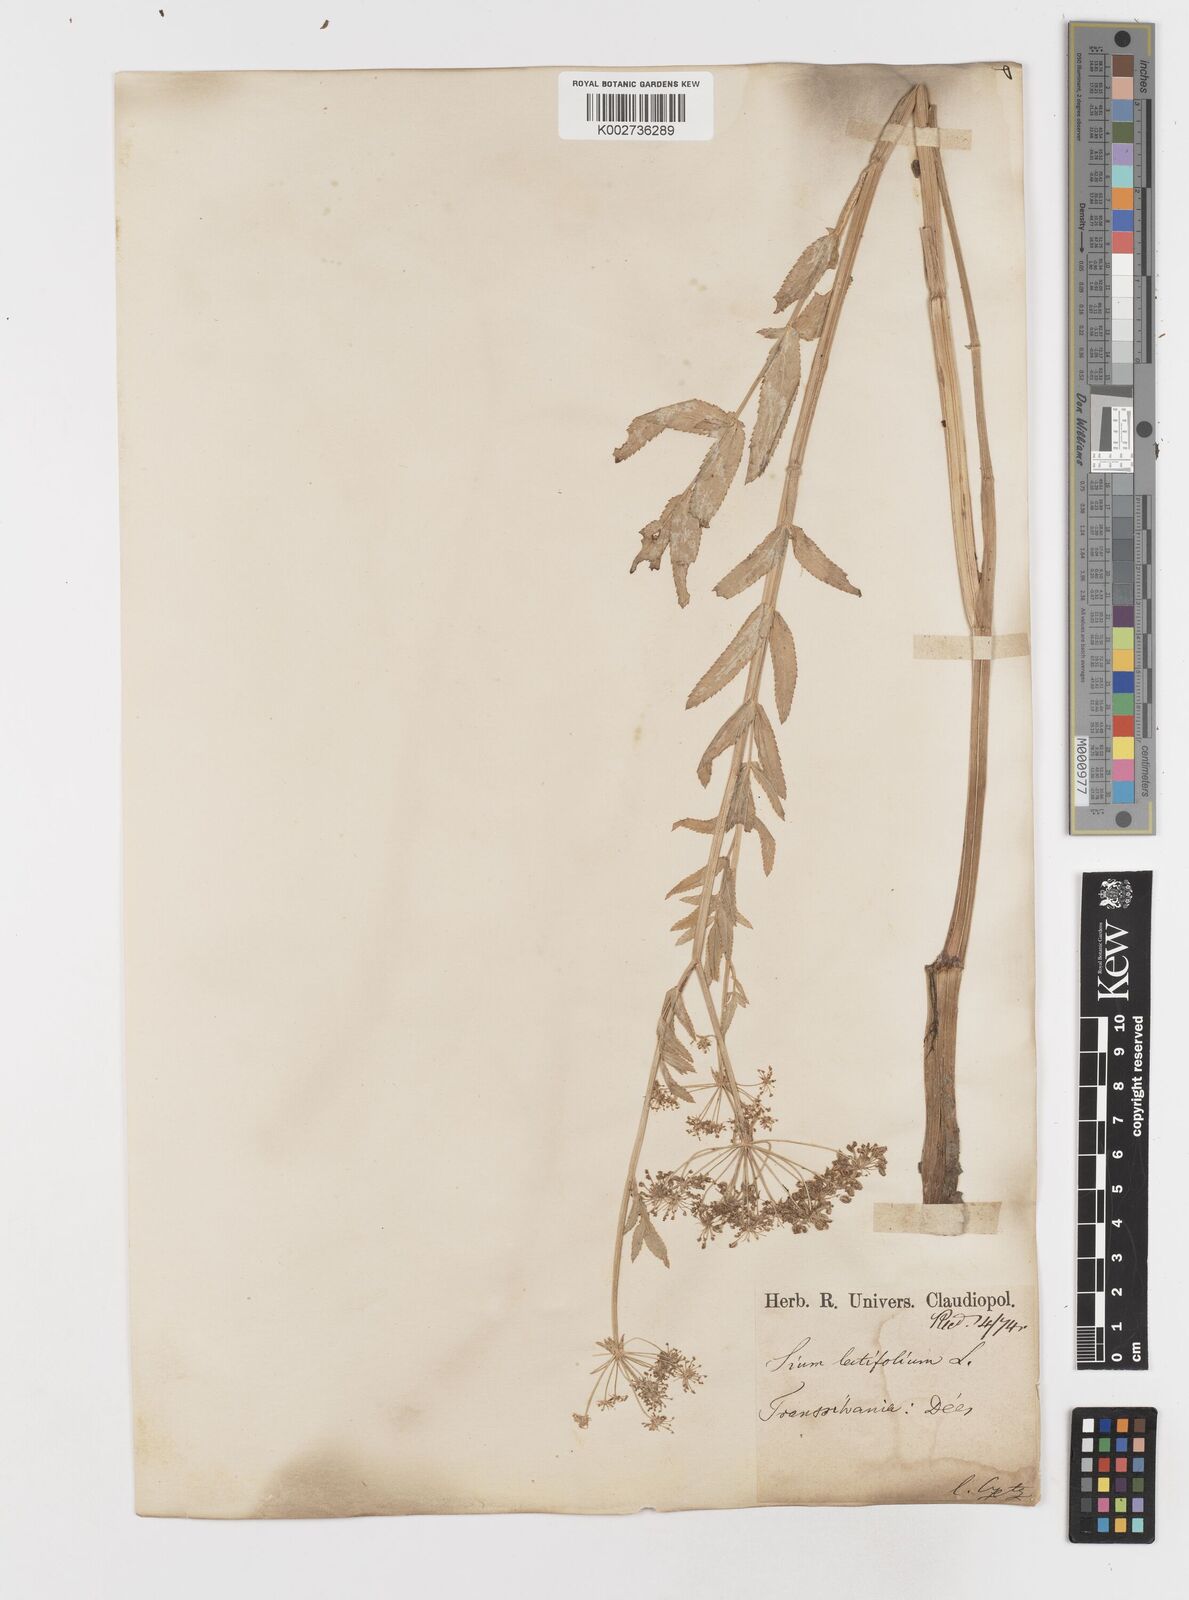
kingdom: Plantae
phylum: Tracheophyta
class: Magnoliopsida
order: Apiales
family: Apiaceae
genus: Sium
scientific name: Sium latifolium
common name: Greater water-parsnip
